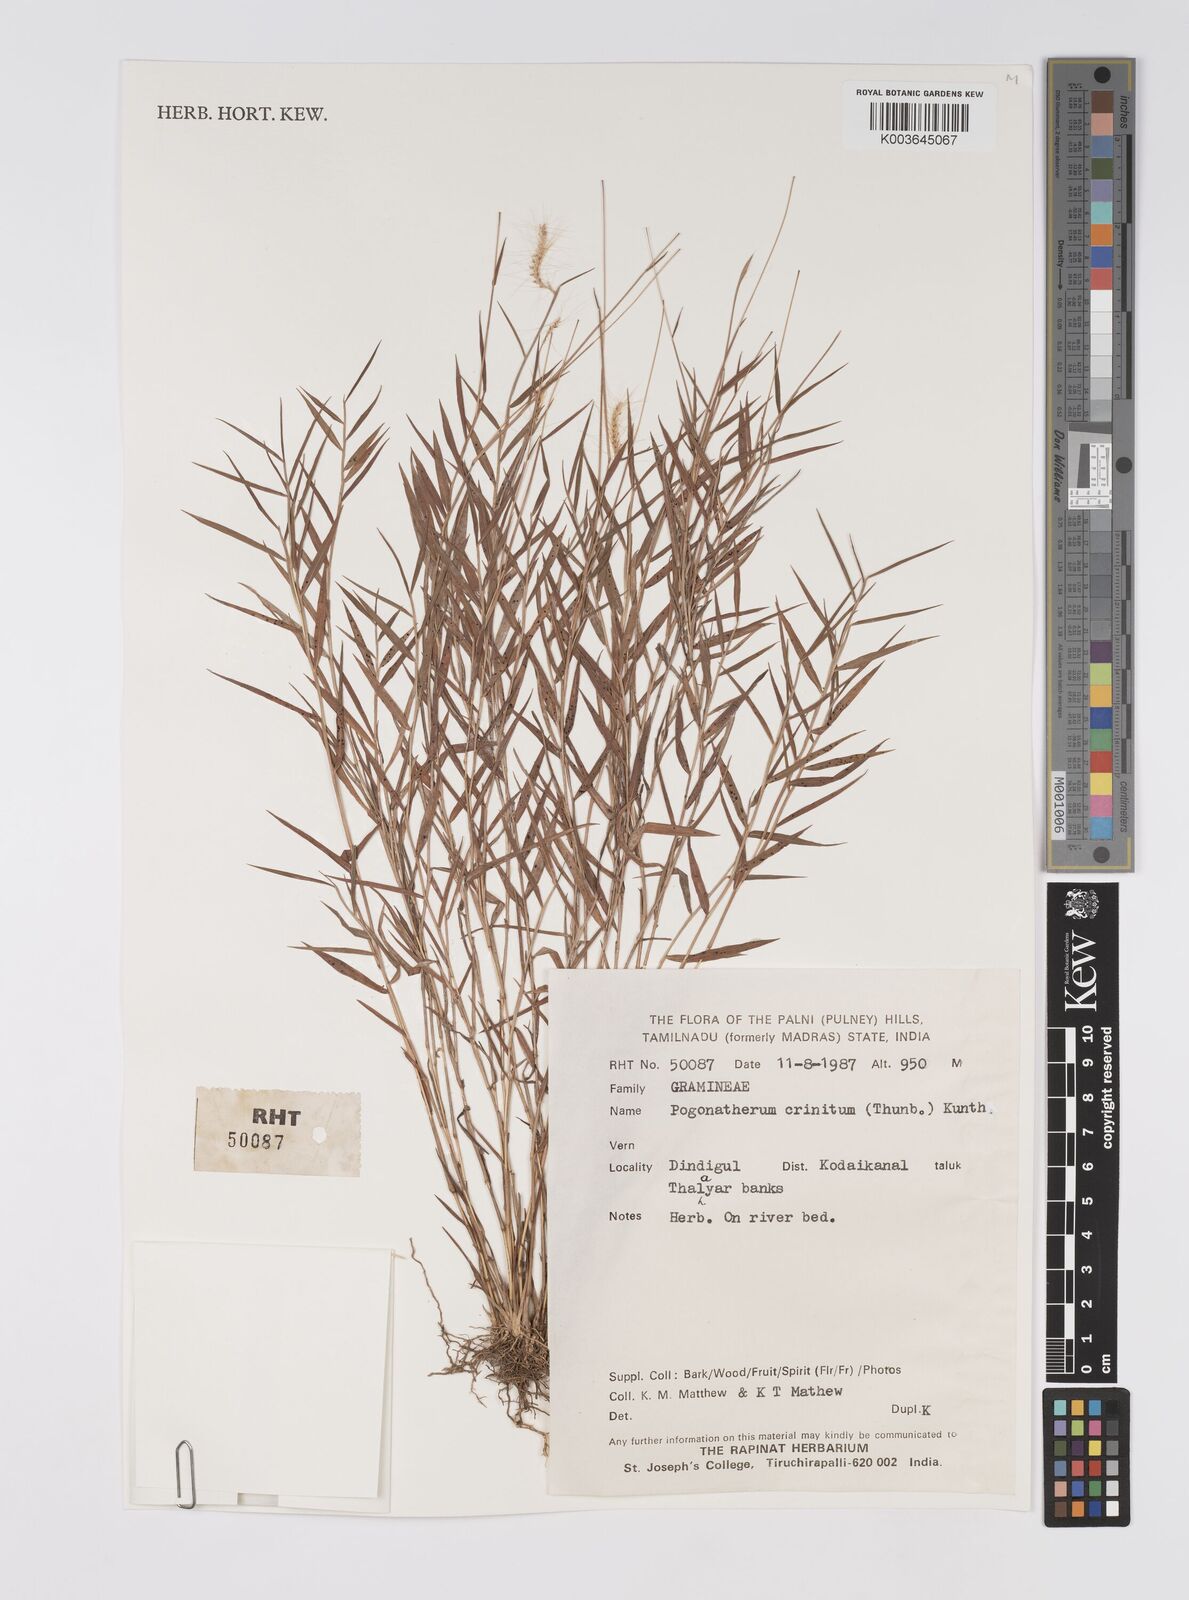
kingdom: Plantae
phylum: Tracheophyta
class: Liliopsida
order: Poales
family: Poaceae
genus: Pogonatherum
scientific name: Pogonatherum crinitum
